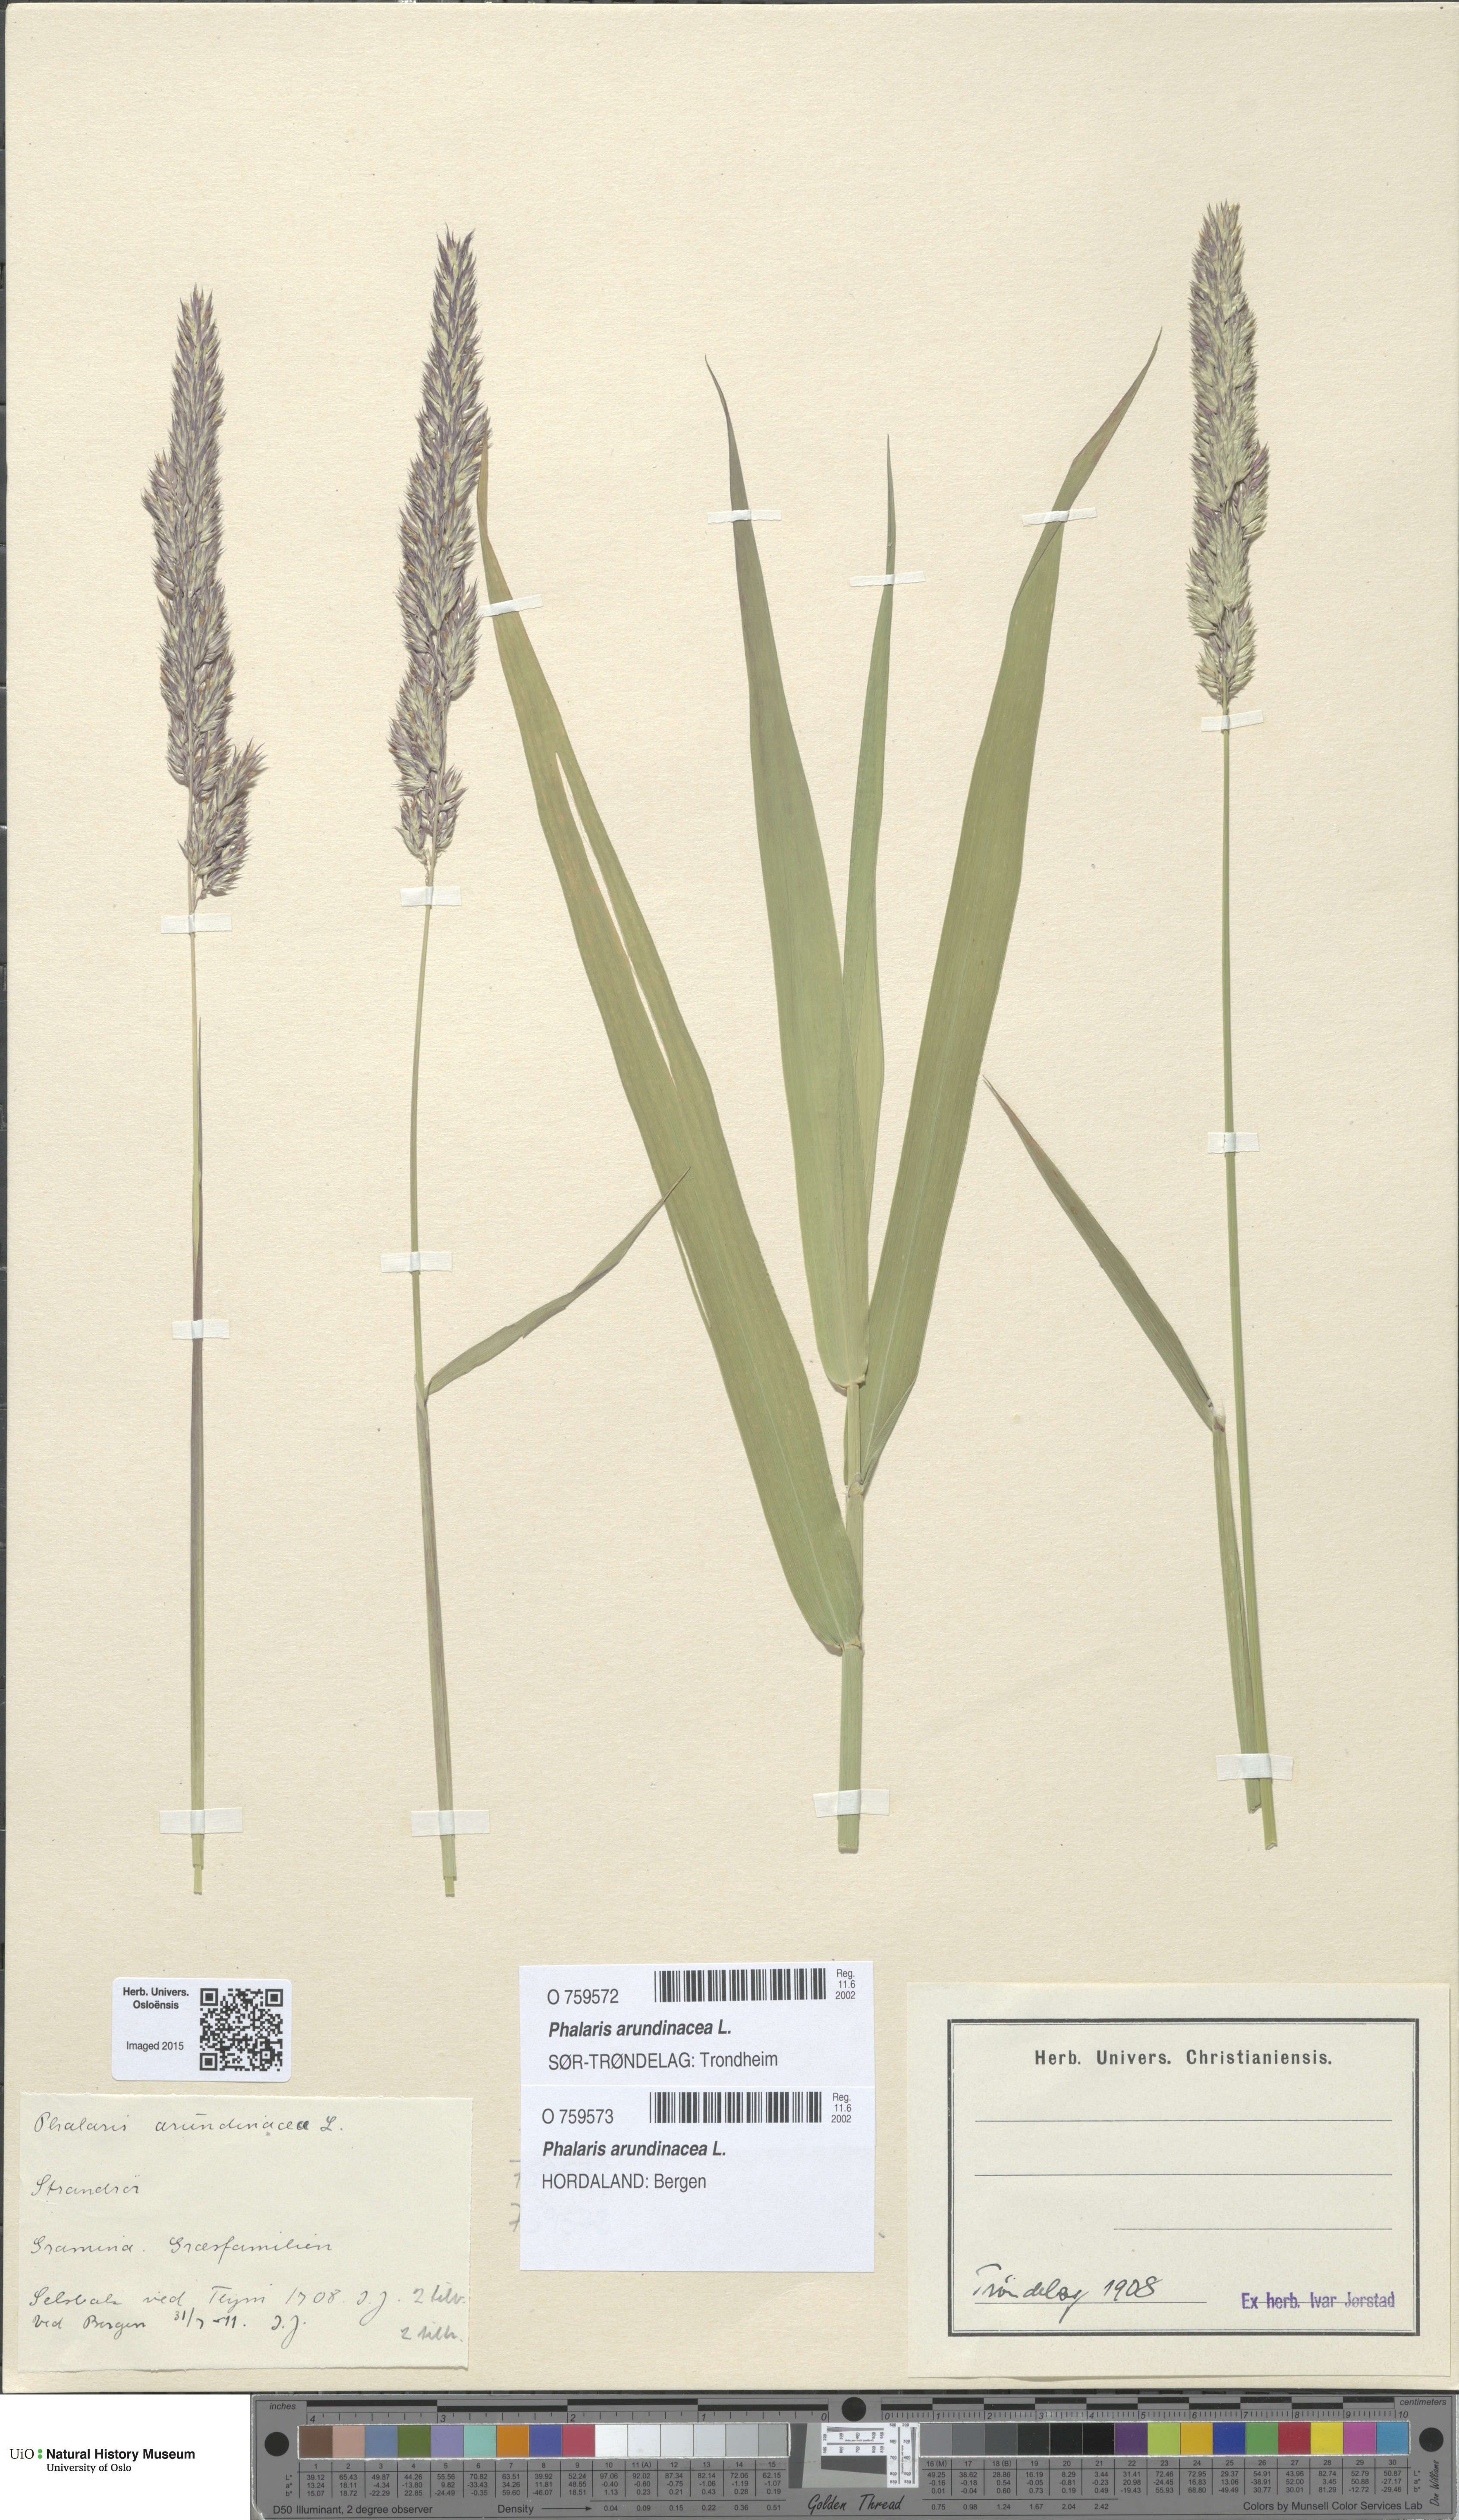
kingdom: Plantae
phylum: Tracheophyta
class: Liliopsida
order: Poales
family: Poaceae
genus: Phalaris
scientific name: Phalaris arundinacea
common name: Reed canary-grass
